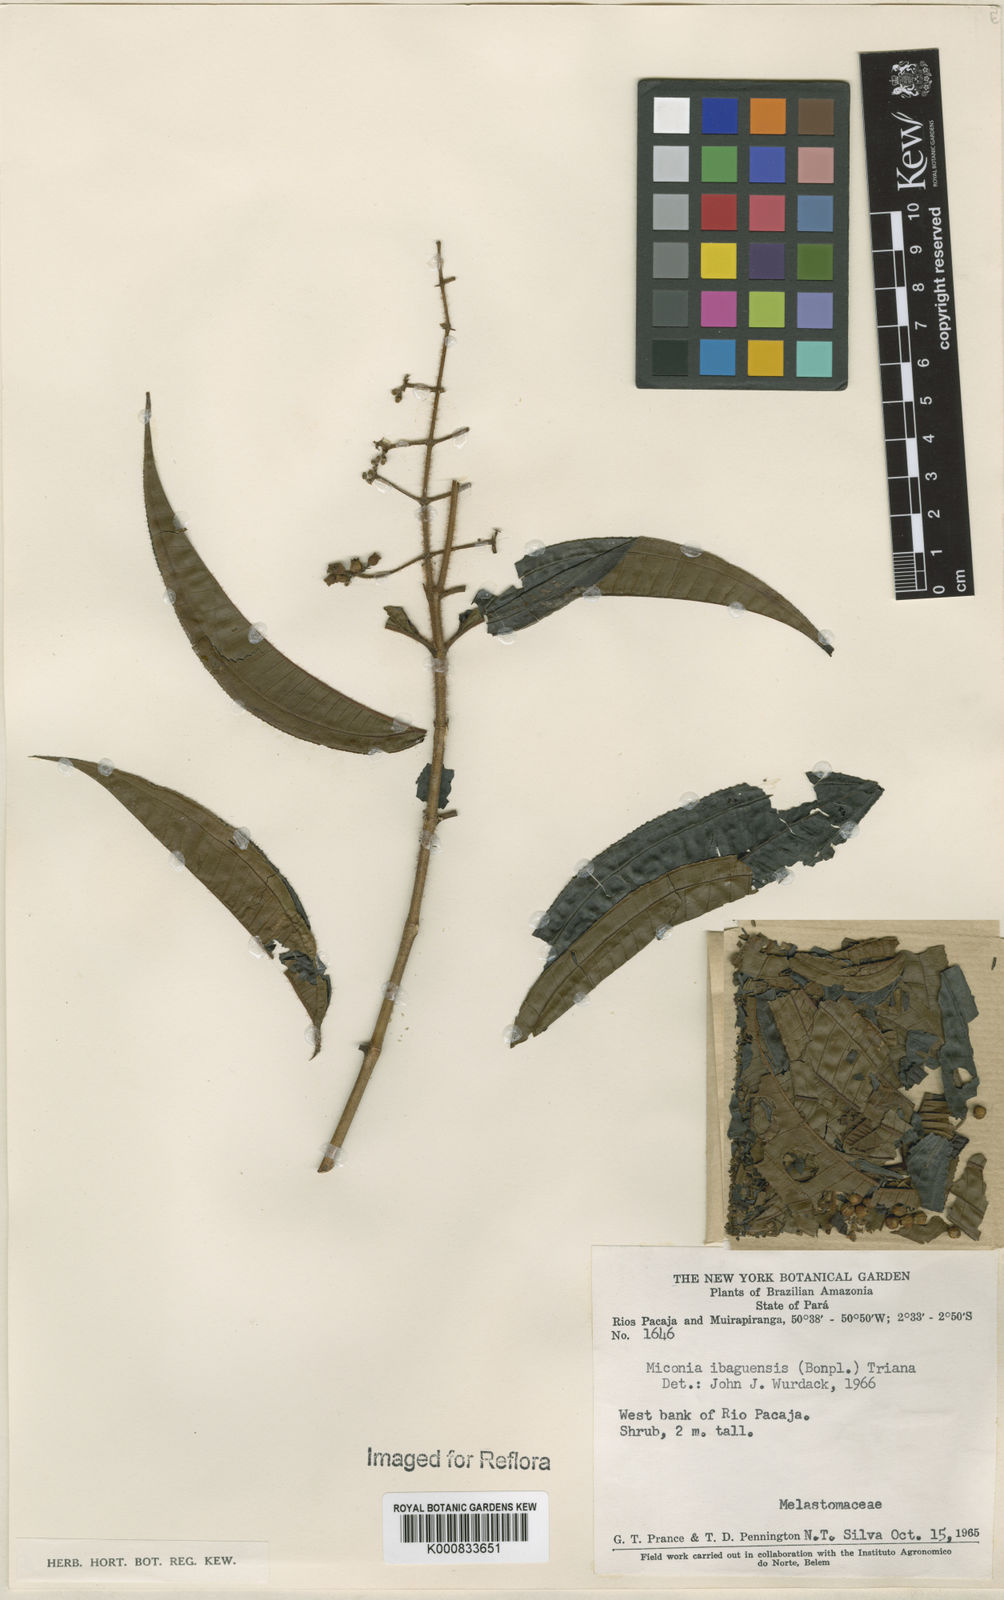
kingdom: Plantae
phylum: Tracheophyta
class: Magnoliopsida
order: Myrtales
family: Melastomataceae
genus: Miconia
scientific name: Miconia ibaguensis
